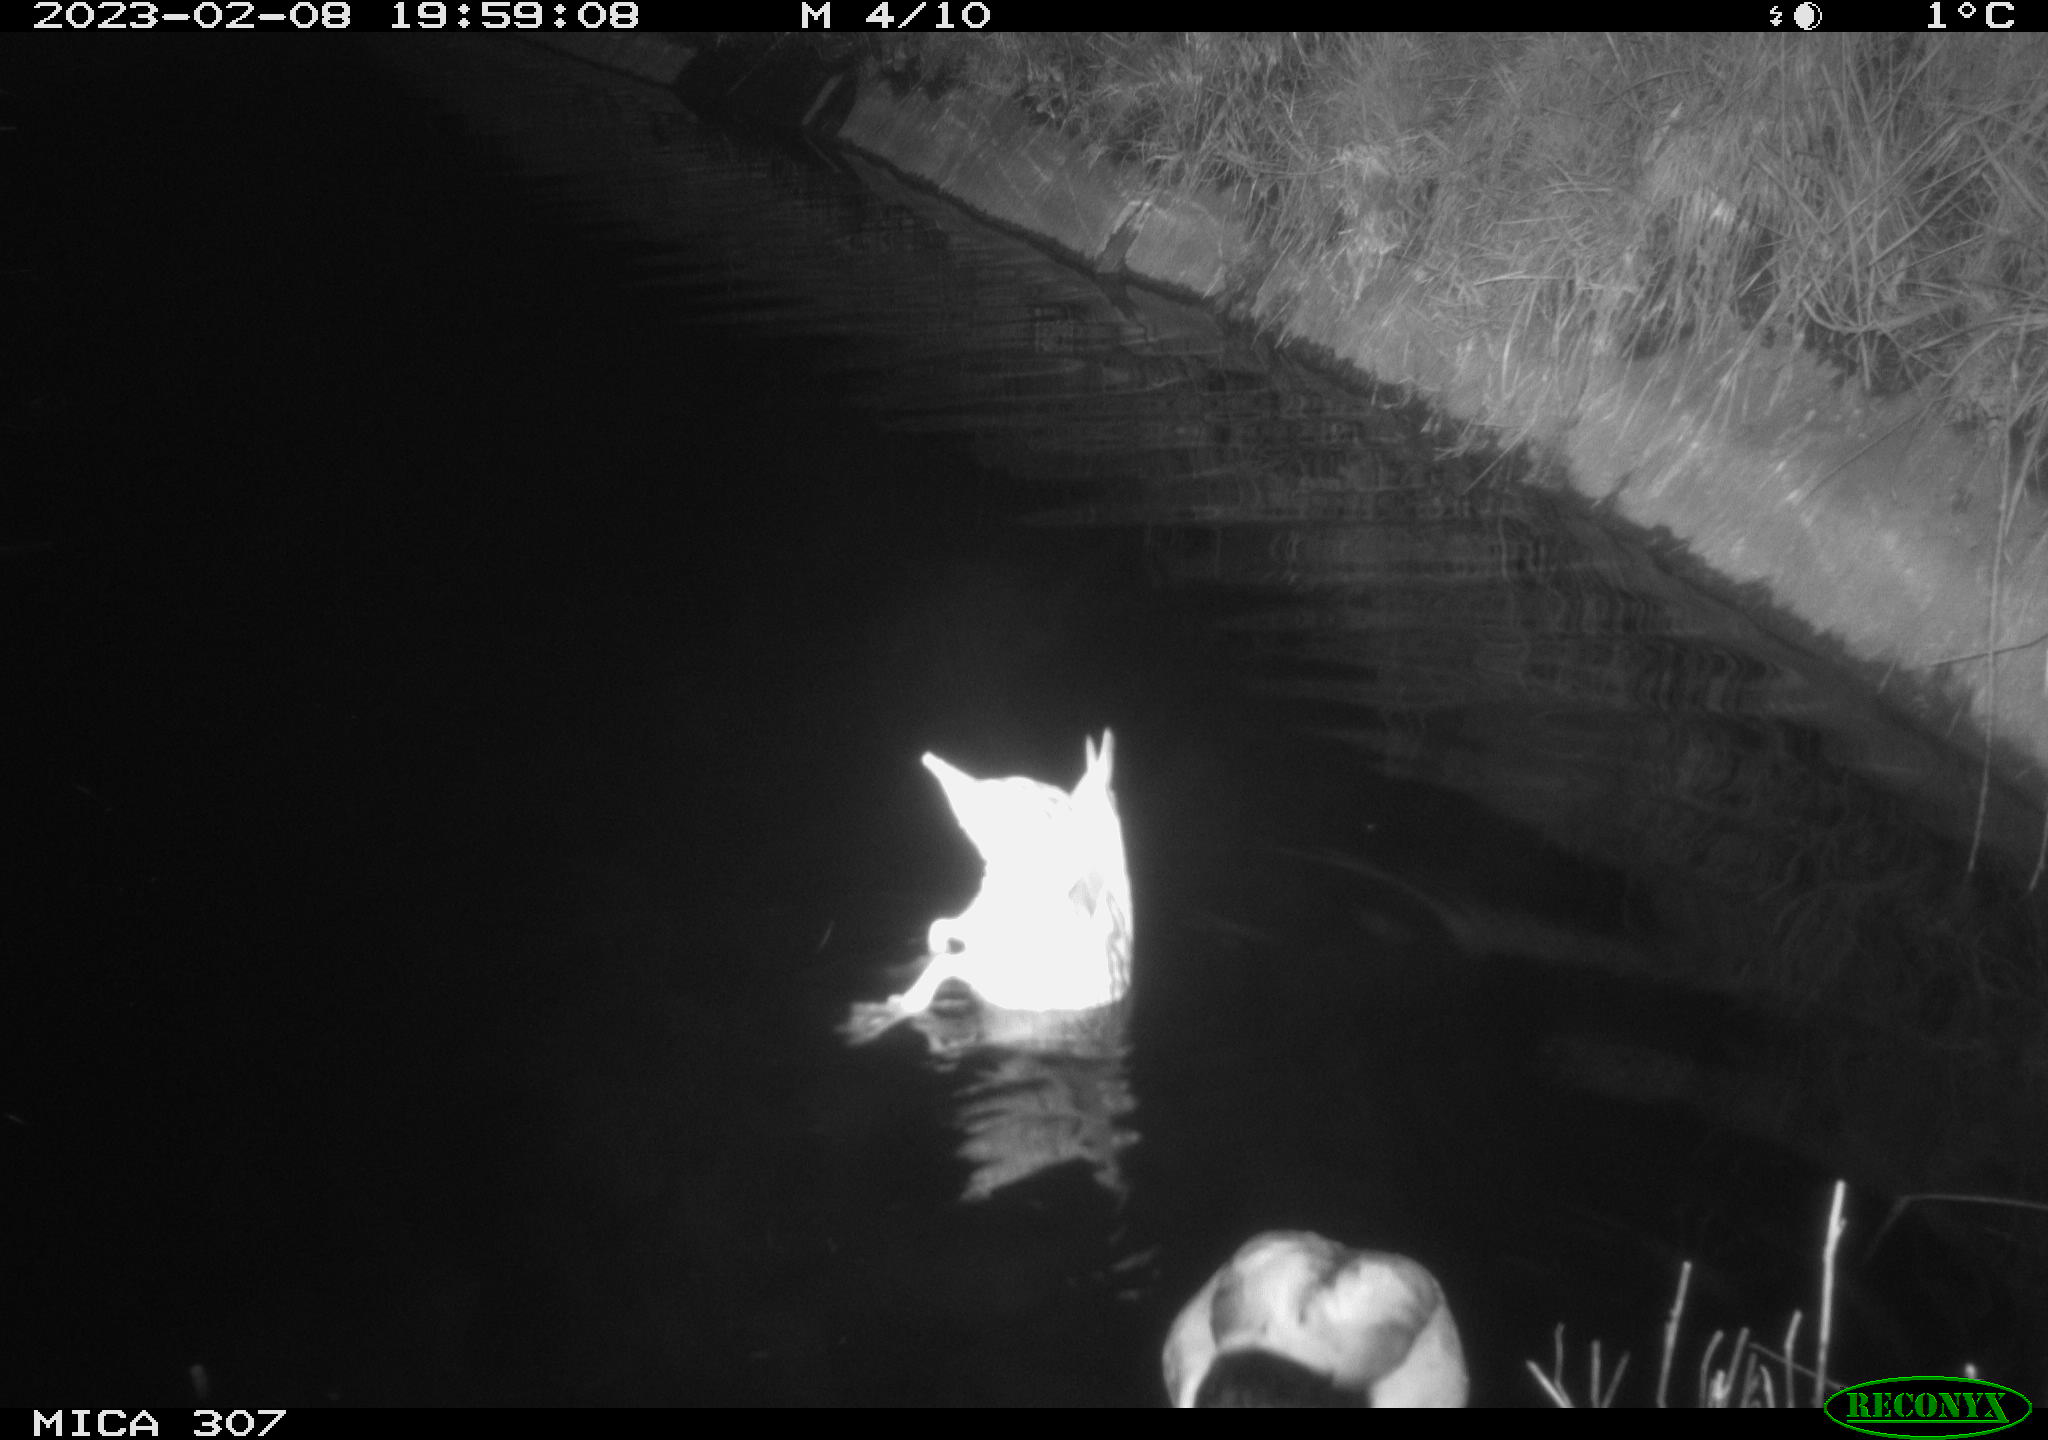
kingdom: Animalia
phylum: Chordata
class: Aves
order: Anseriformes
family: Anatidae
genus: Anas
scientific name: Anas
